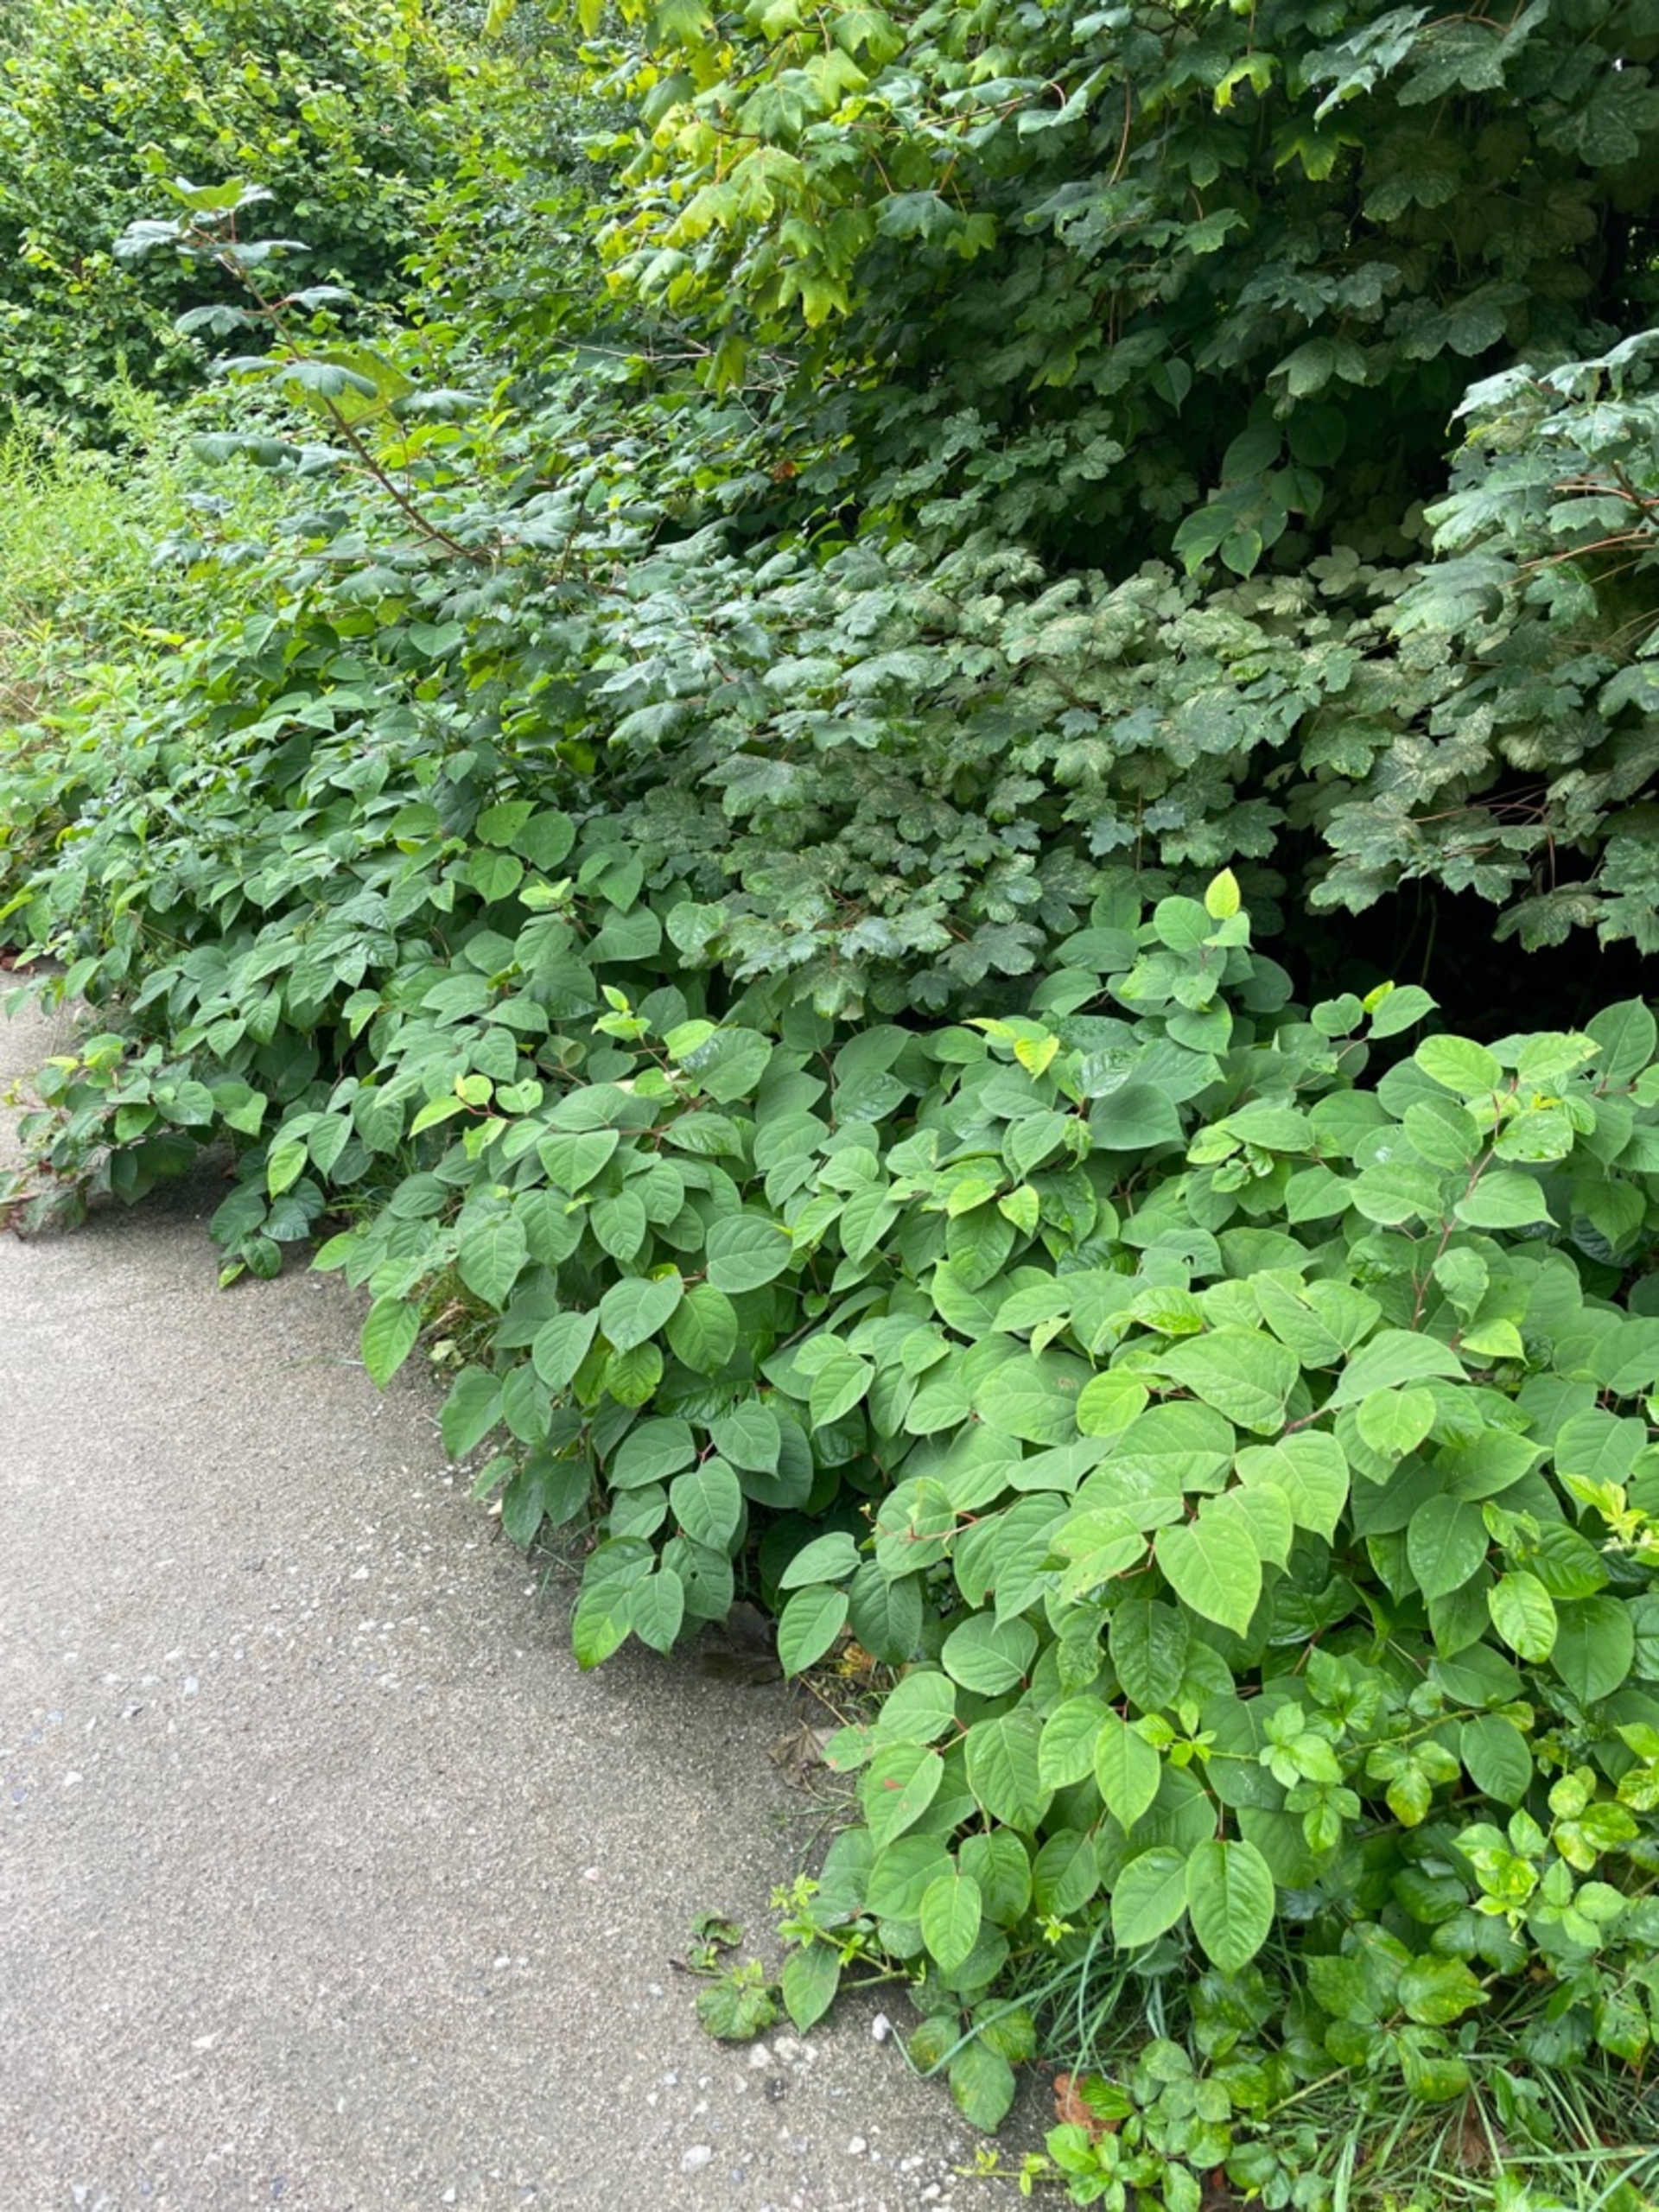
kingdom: Plantae
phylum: Tracheophyta
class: Magnoliopsida
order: Caryophyllales
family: Polygonaceae
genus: Reynoutria
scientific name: Reynoutria japonica
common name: Japan-pileurt
